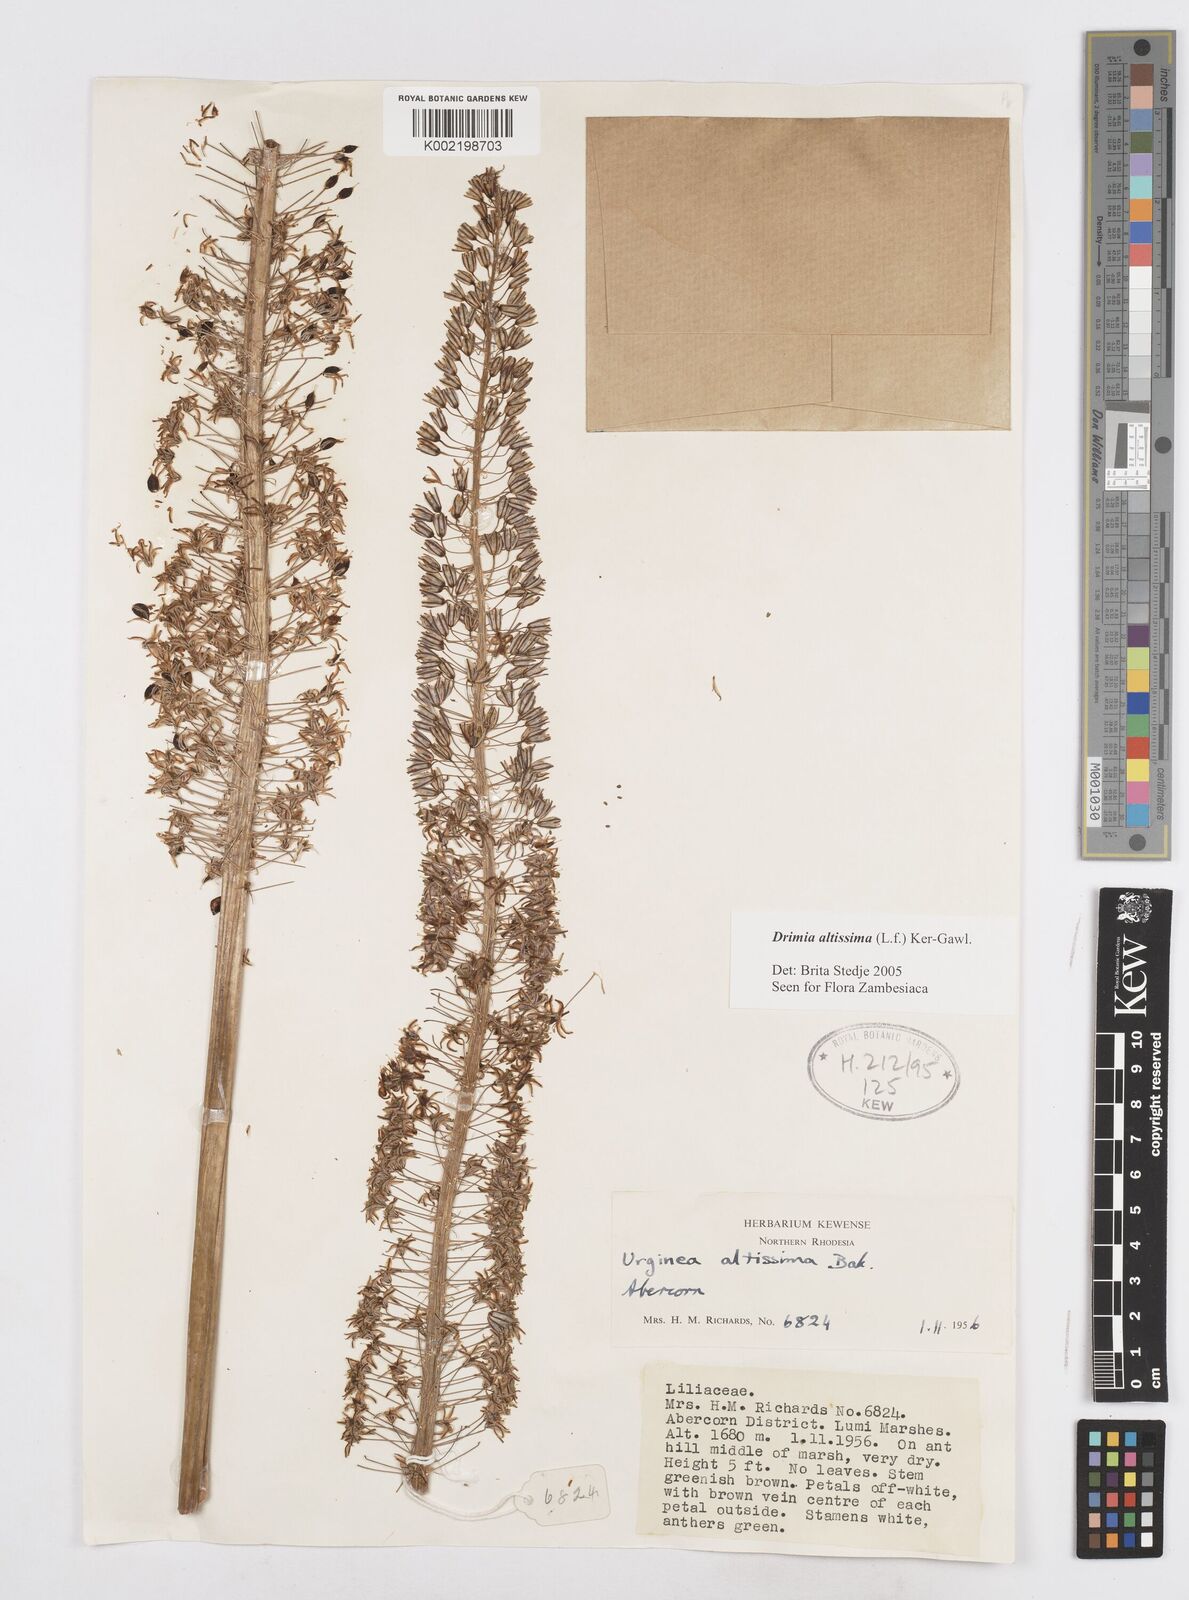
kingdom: Plantae
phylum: Tracheophyta
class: Liliopsida
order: Asparagales
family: Asparagaceae
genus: Drimia
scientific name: Drimia
